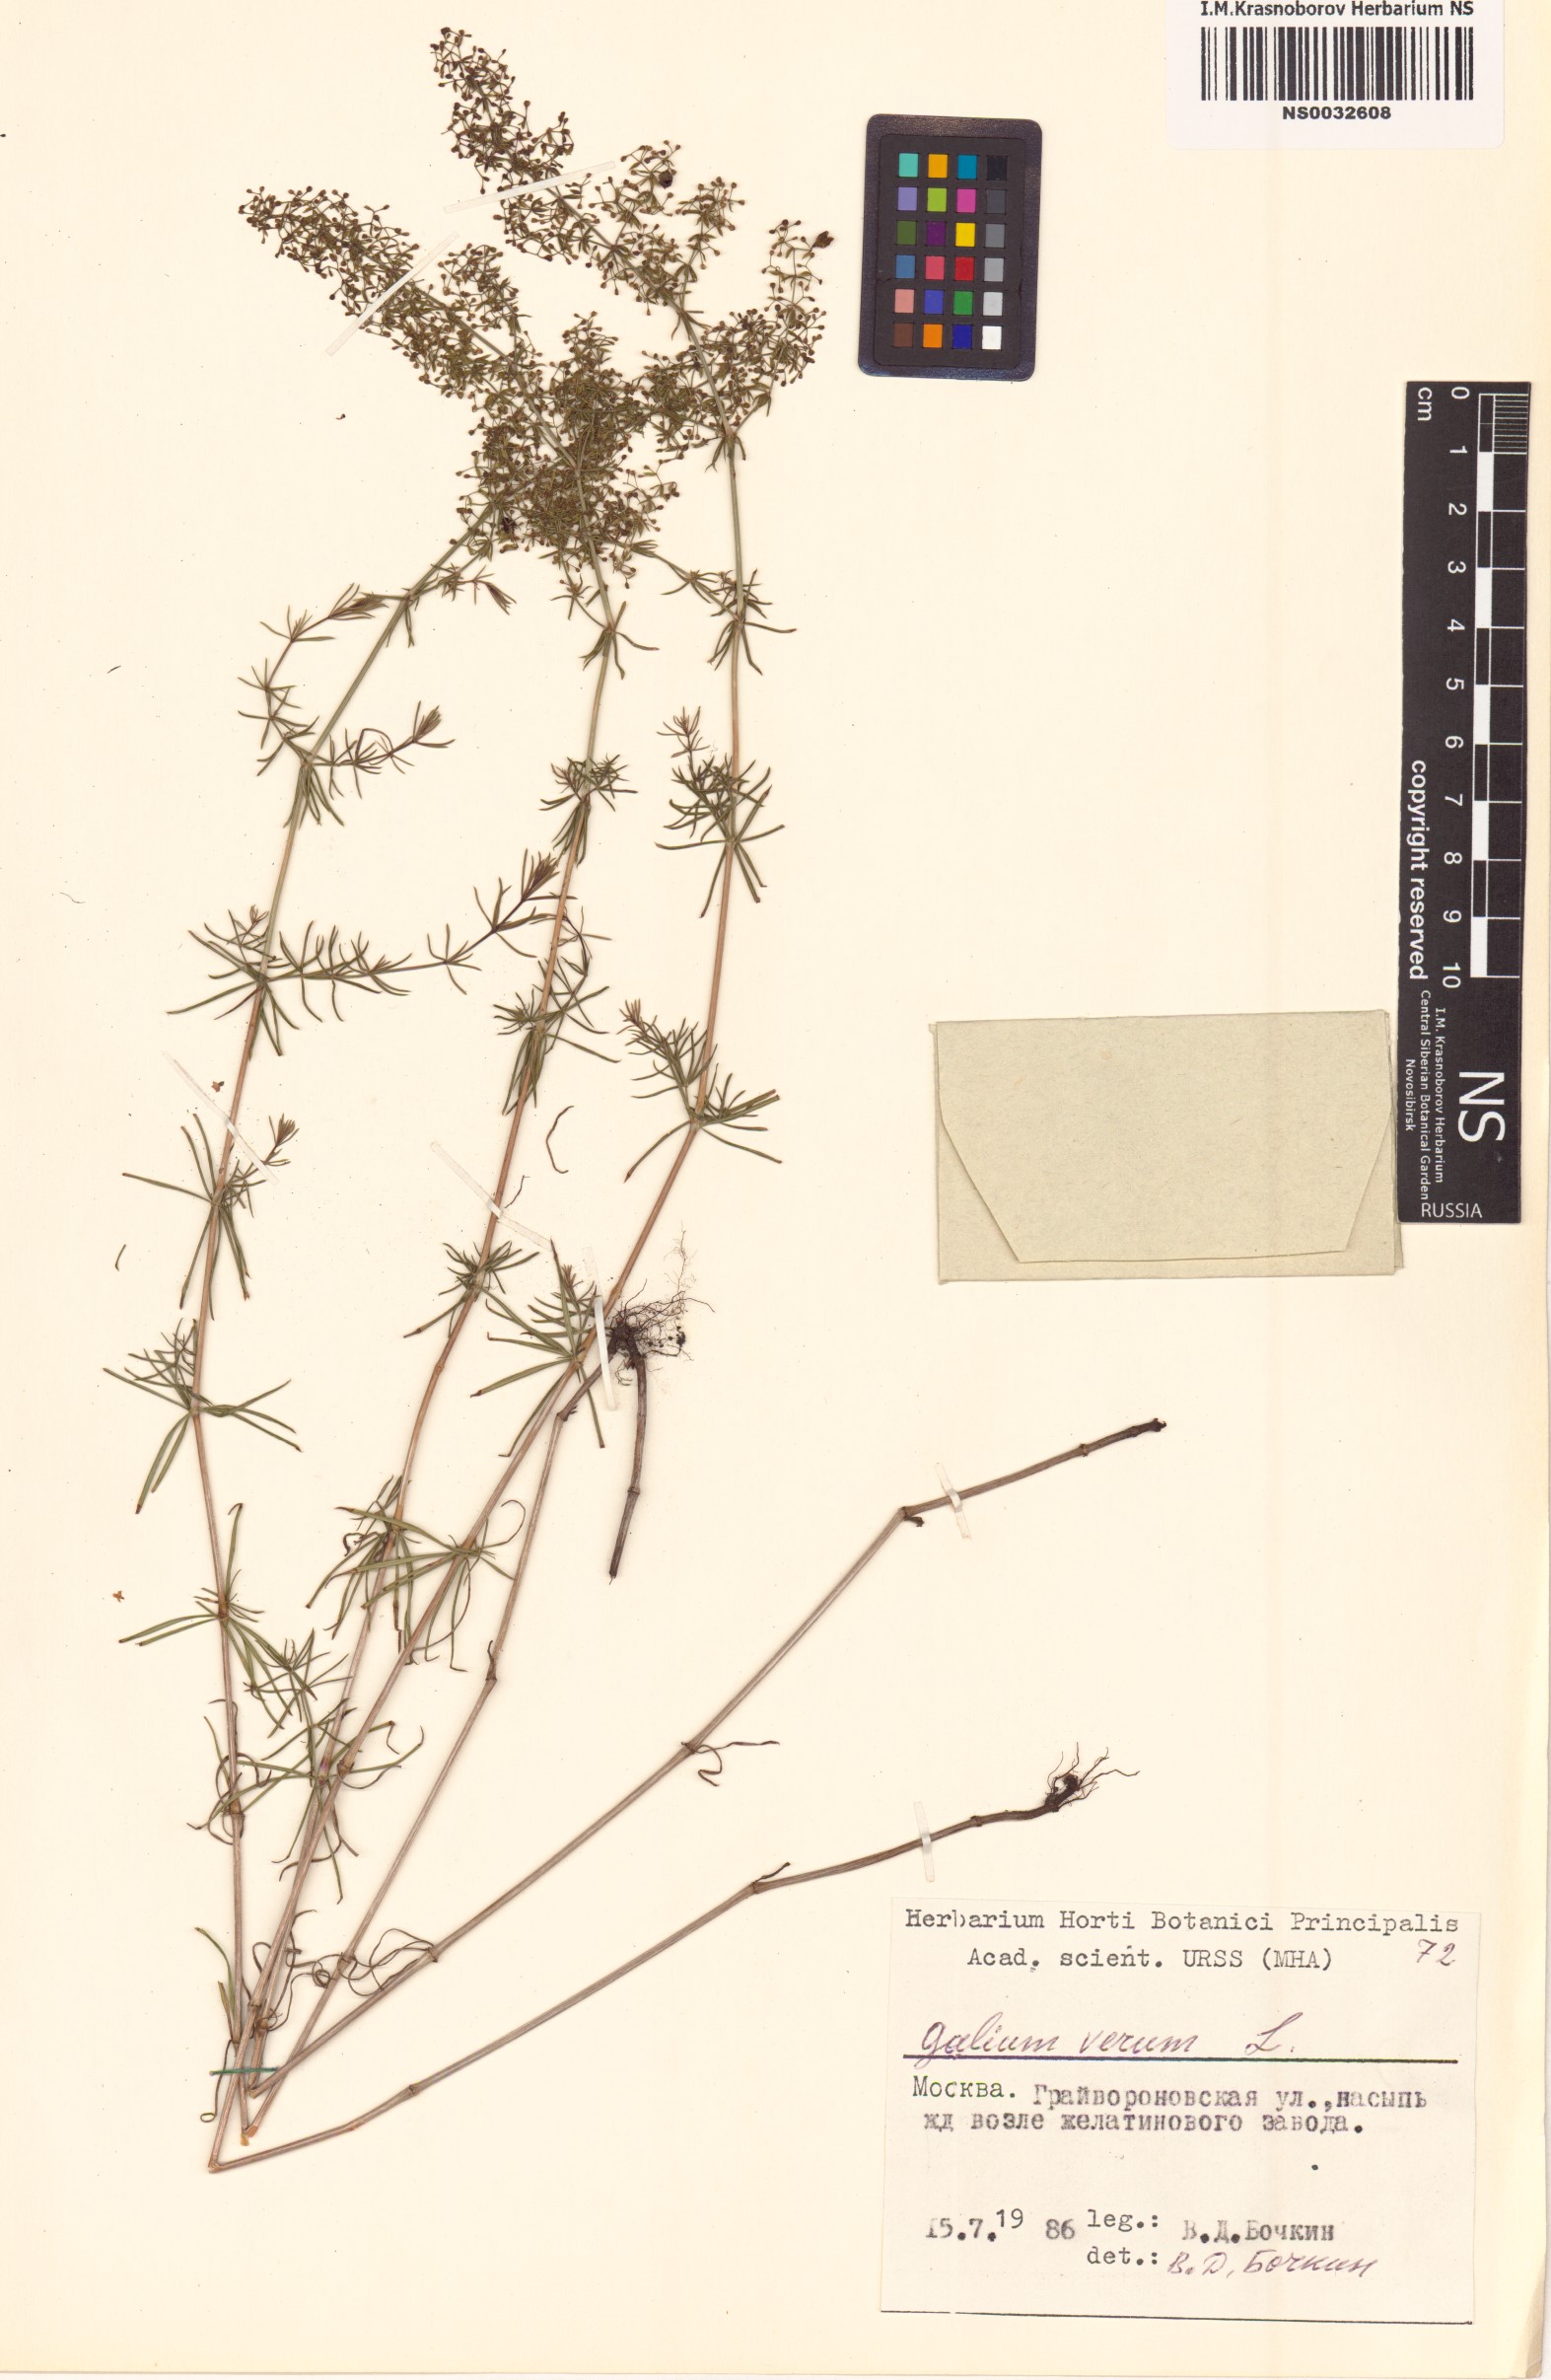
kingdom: Plantae
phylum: Tracheophyta
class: Magnoliopsida
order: Gentianales
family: Rubiaceae
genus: Galium
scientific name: Galium verum
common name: Lady's bedstraw
